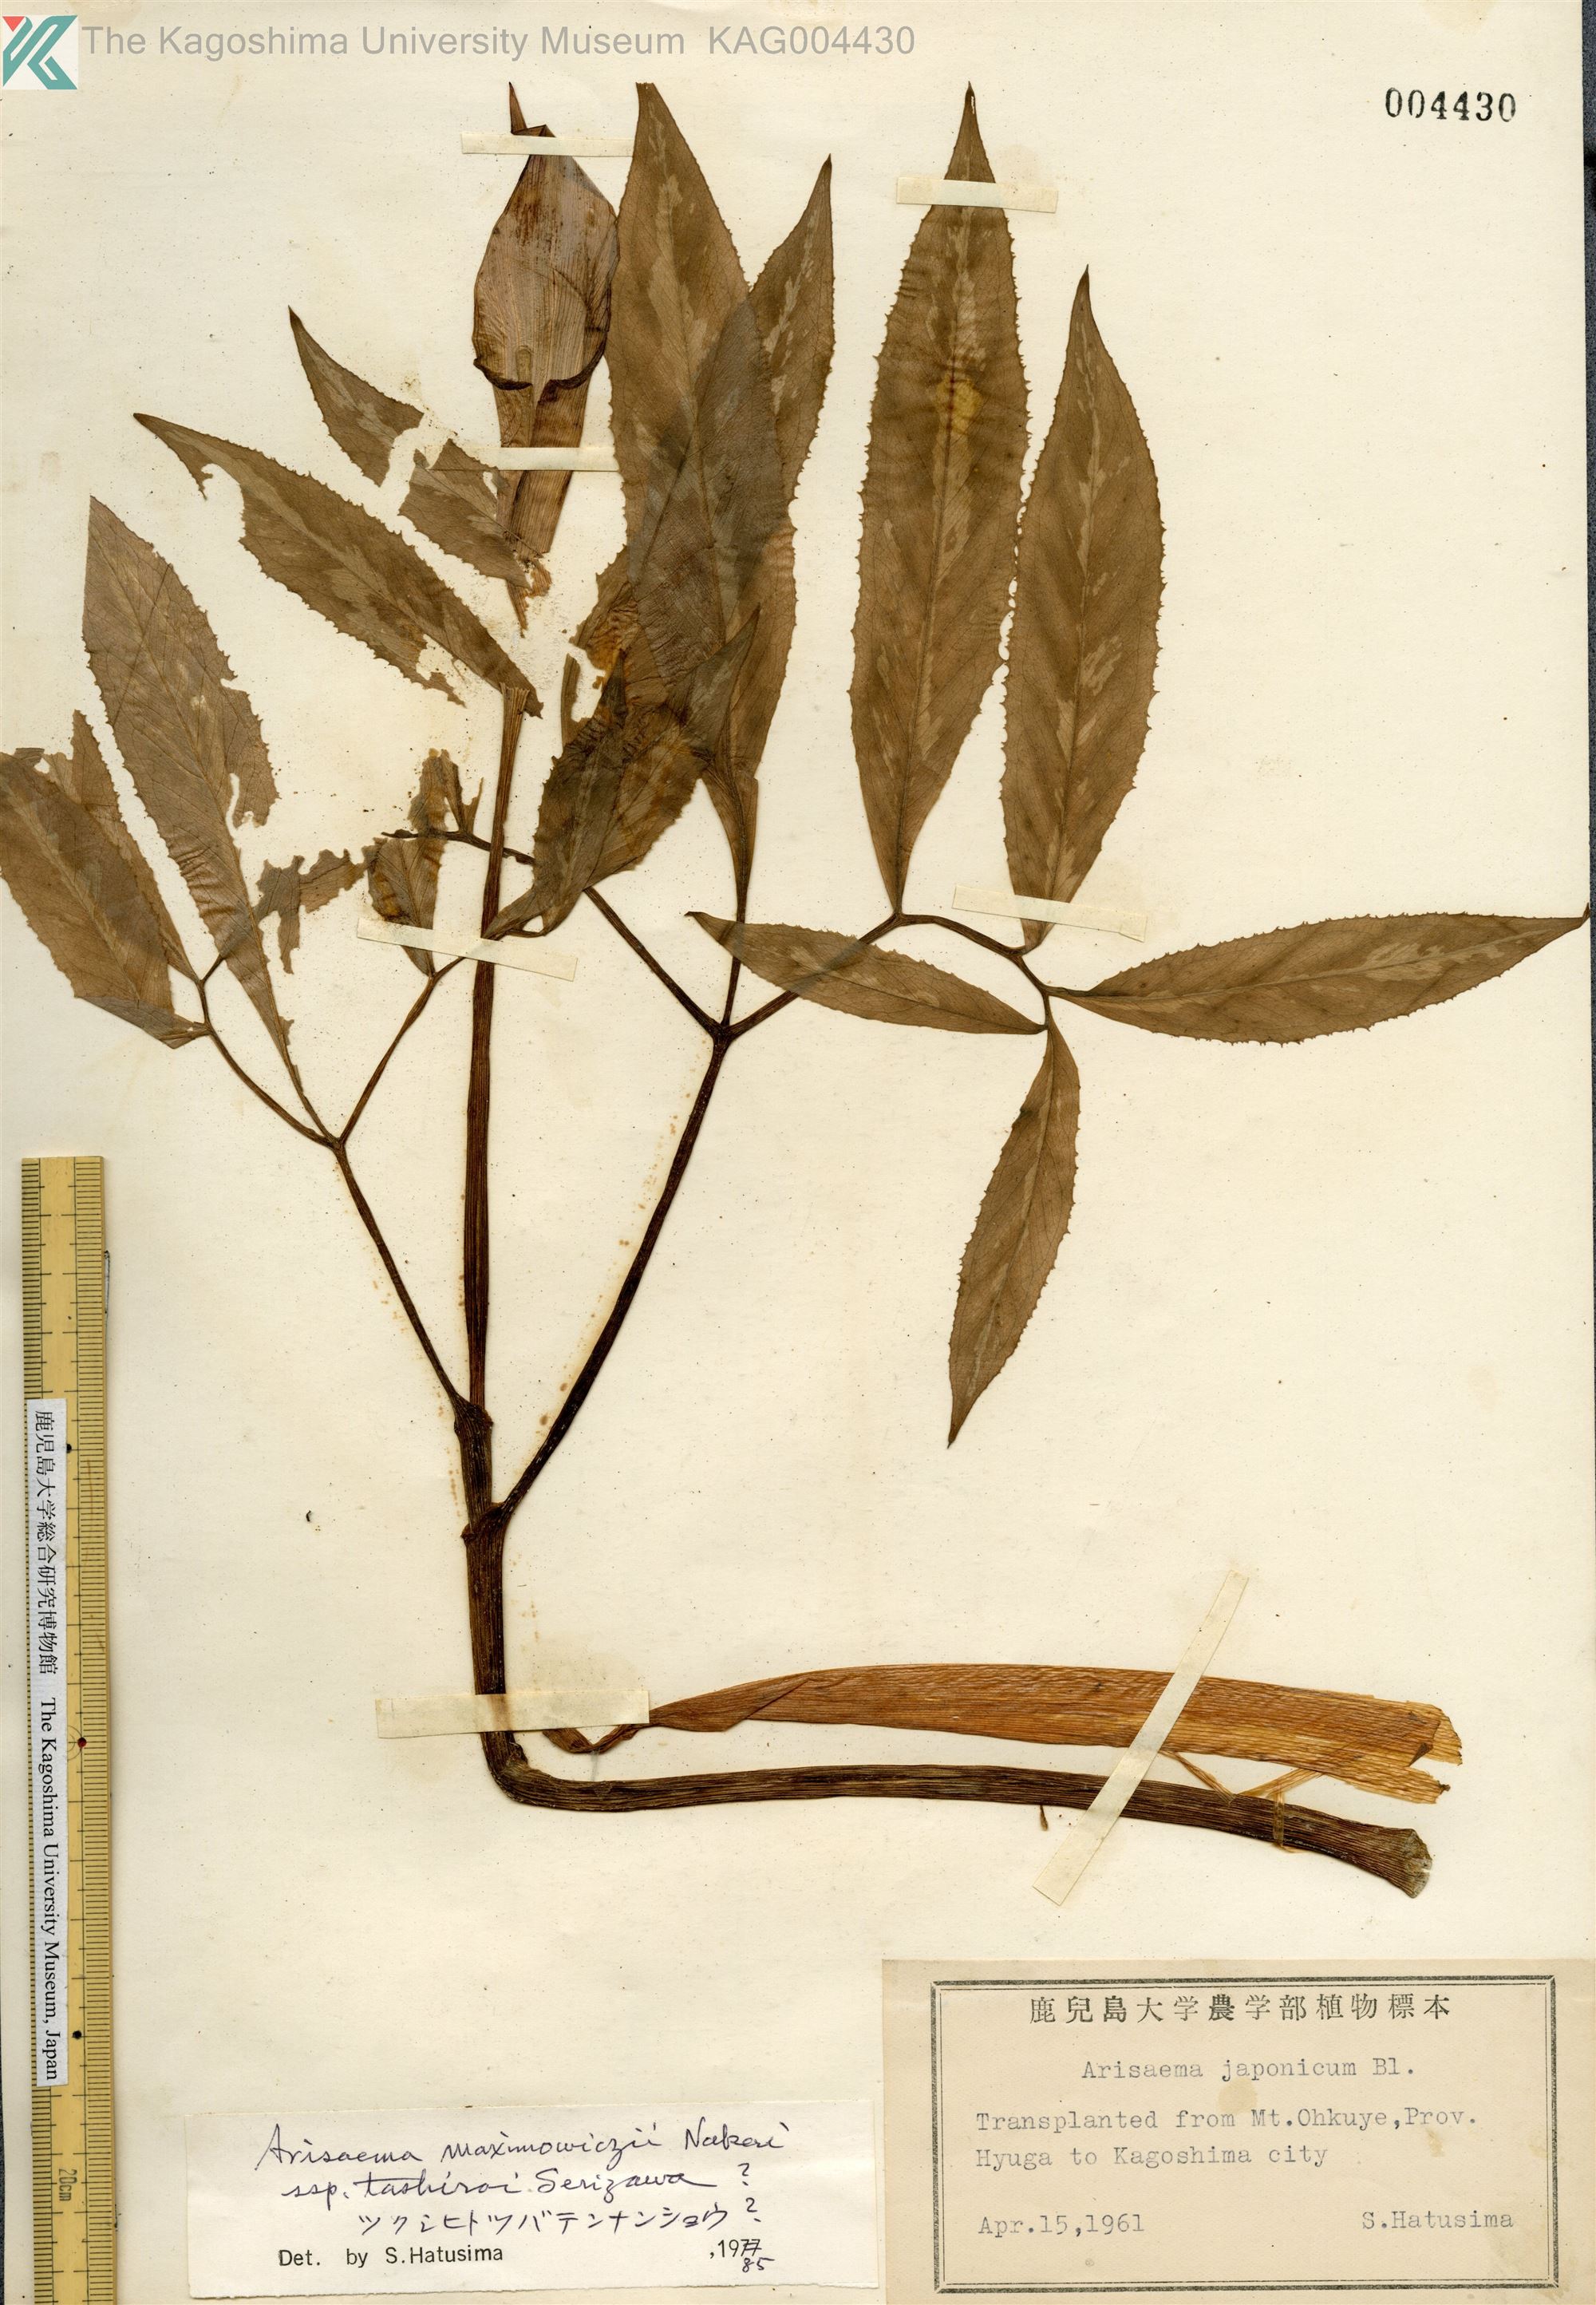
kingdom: Plantae
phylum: Tracheophyta
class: Liliopsida
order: Alismatales
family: Araceae
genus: Arisaema
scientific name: Arisaema maximowiczii
